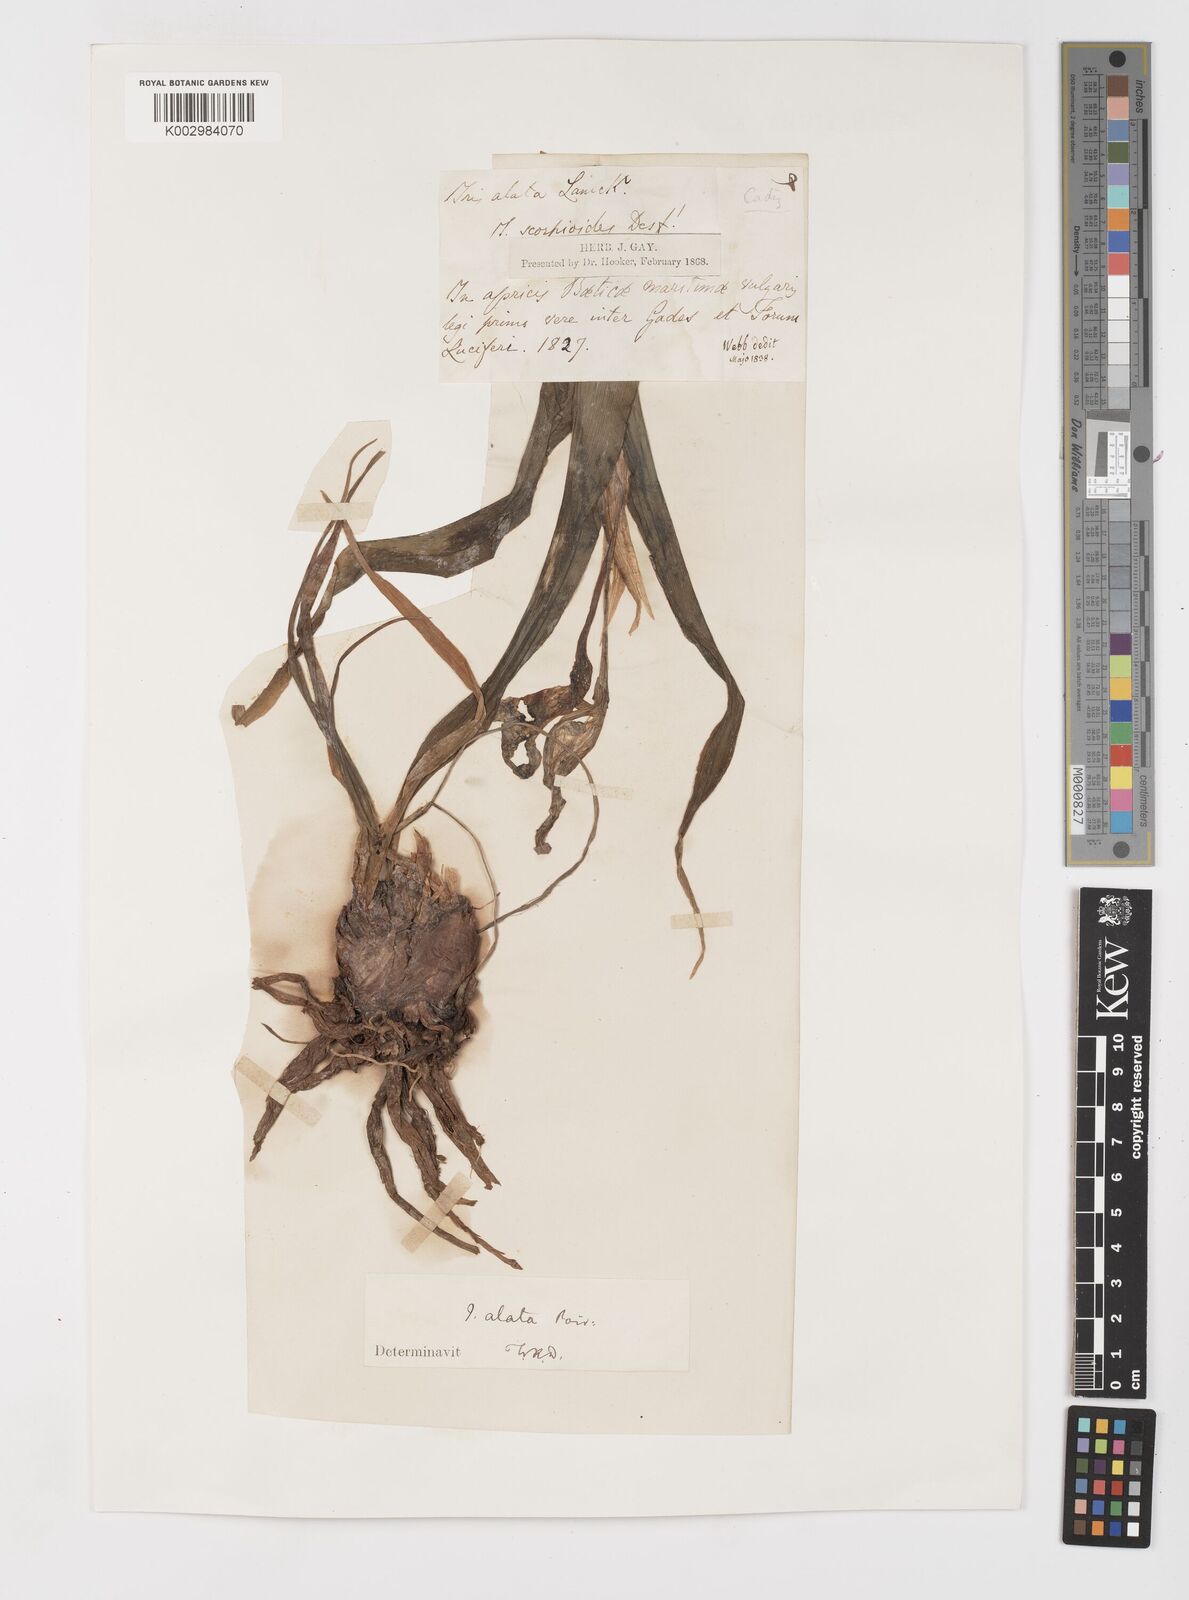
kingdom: Plantae
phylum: Tracheophyta
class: Liliopsida
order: Asparagales
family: Iridaceae
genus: Iris
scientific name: Iris planifolia
